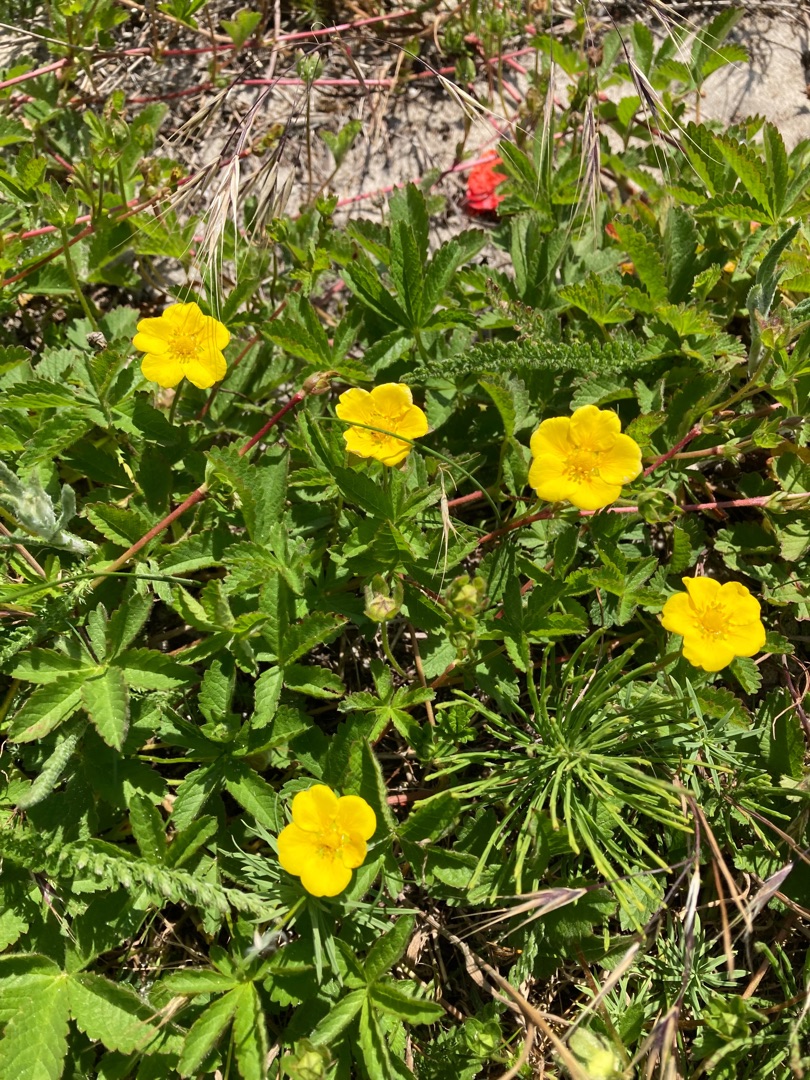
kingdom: Plantae
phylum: Tracheophyta
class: Magnoliopsida
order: Rosales
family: Rosaceae
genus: Potentilla
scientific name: Potentilla reptans
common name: Krybende potentil
